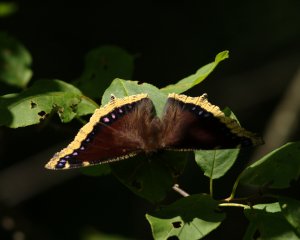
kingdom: Animalia
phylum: Arthropoda
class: Insecta
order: Lepidoptera
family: Nymphalidae
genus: Nymphalis
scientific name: Nymphalis antiopa
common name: Mourning Cloak
